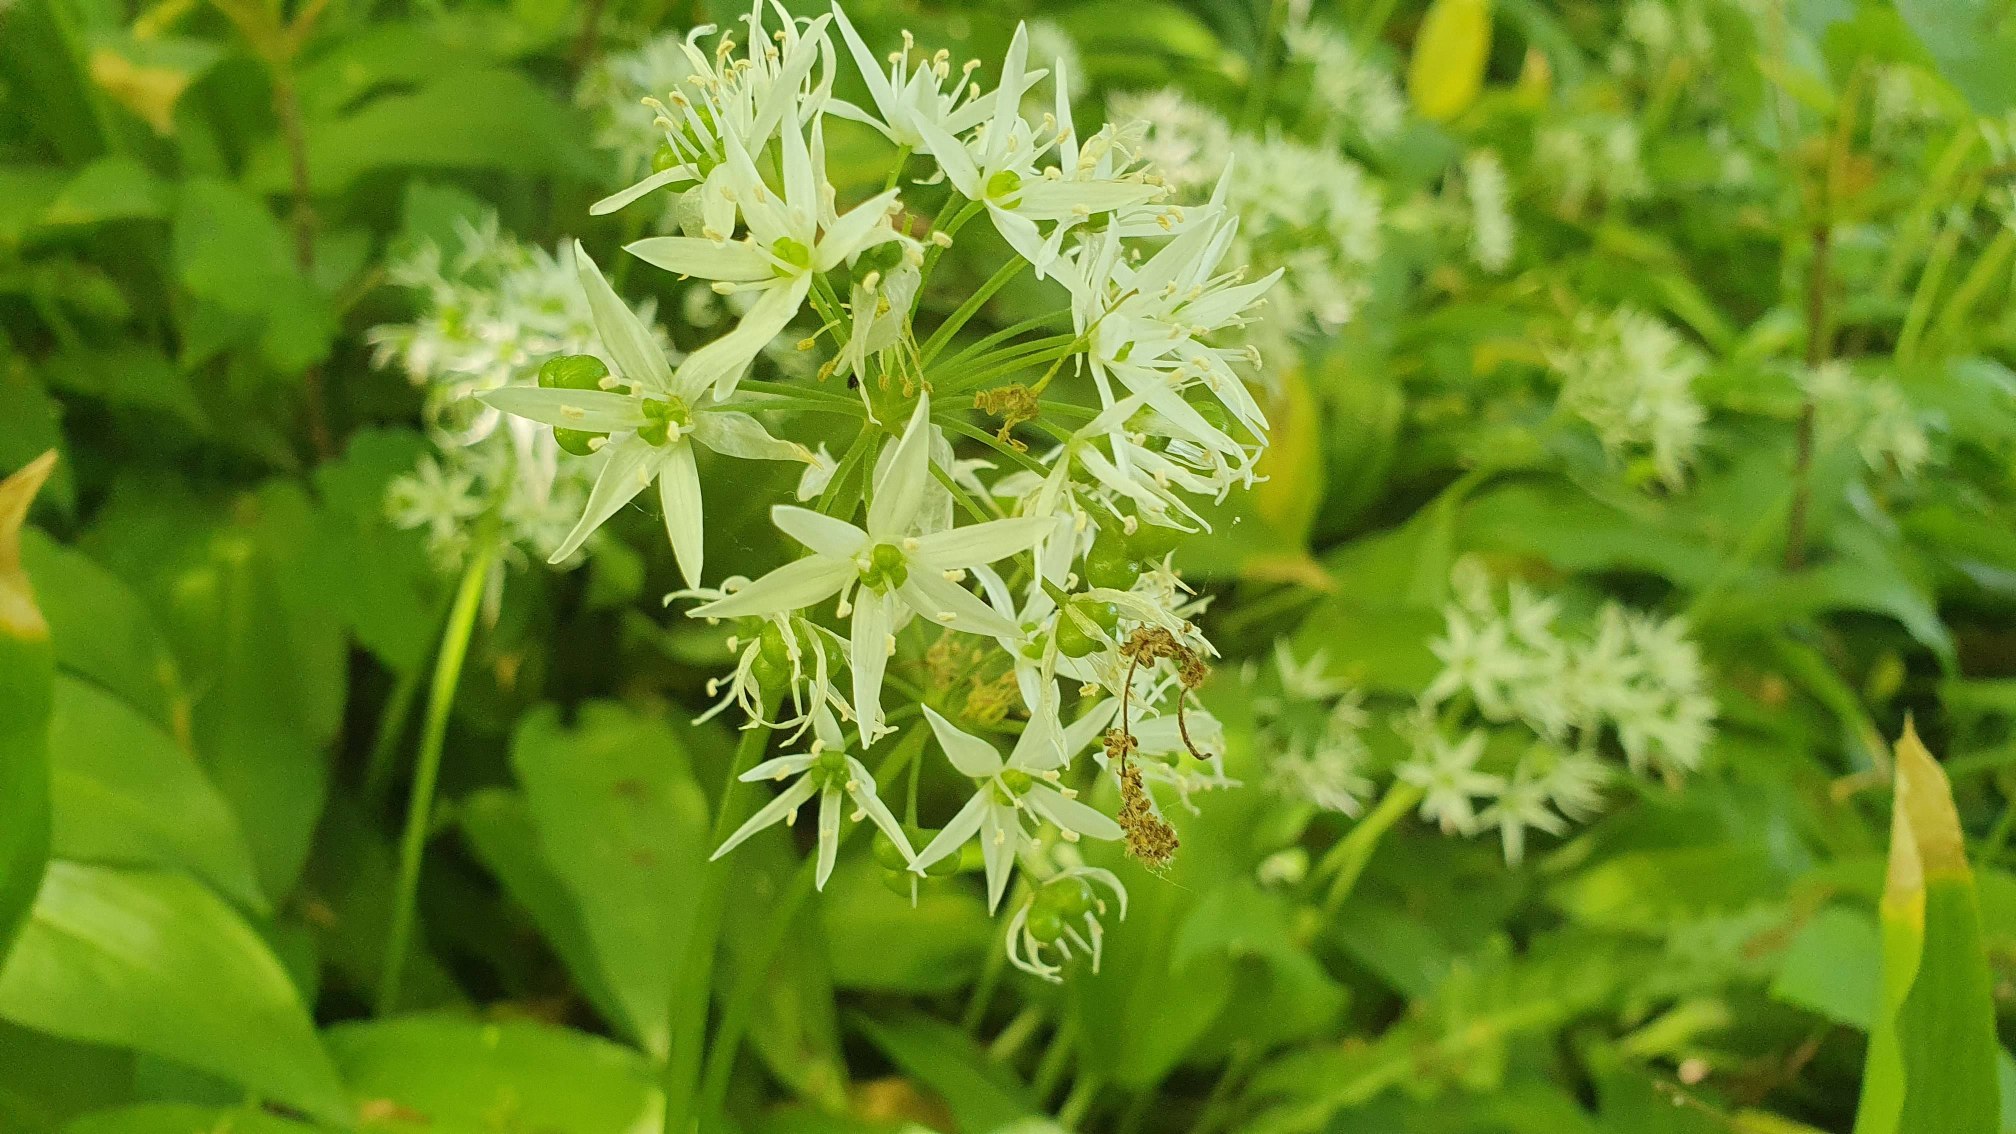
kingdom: Plantae
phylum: Tracheophyta
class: Liliopsida
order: Asparagales
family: Amaryllidaceae
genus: Allium
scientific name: Allium ursinum
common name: Rams-løg
